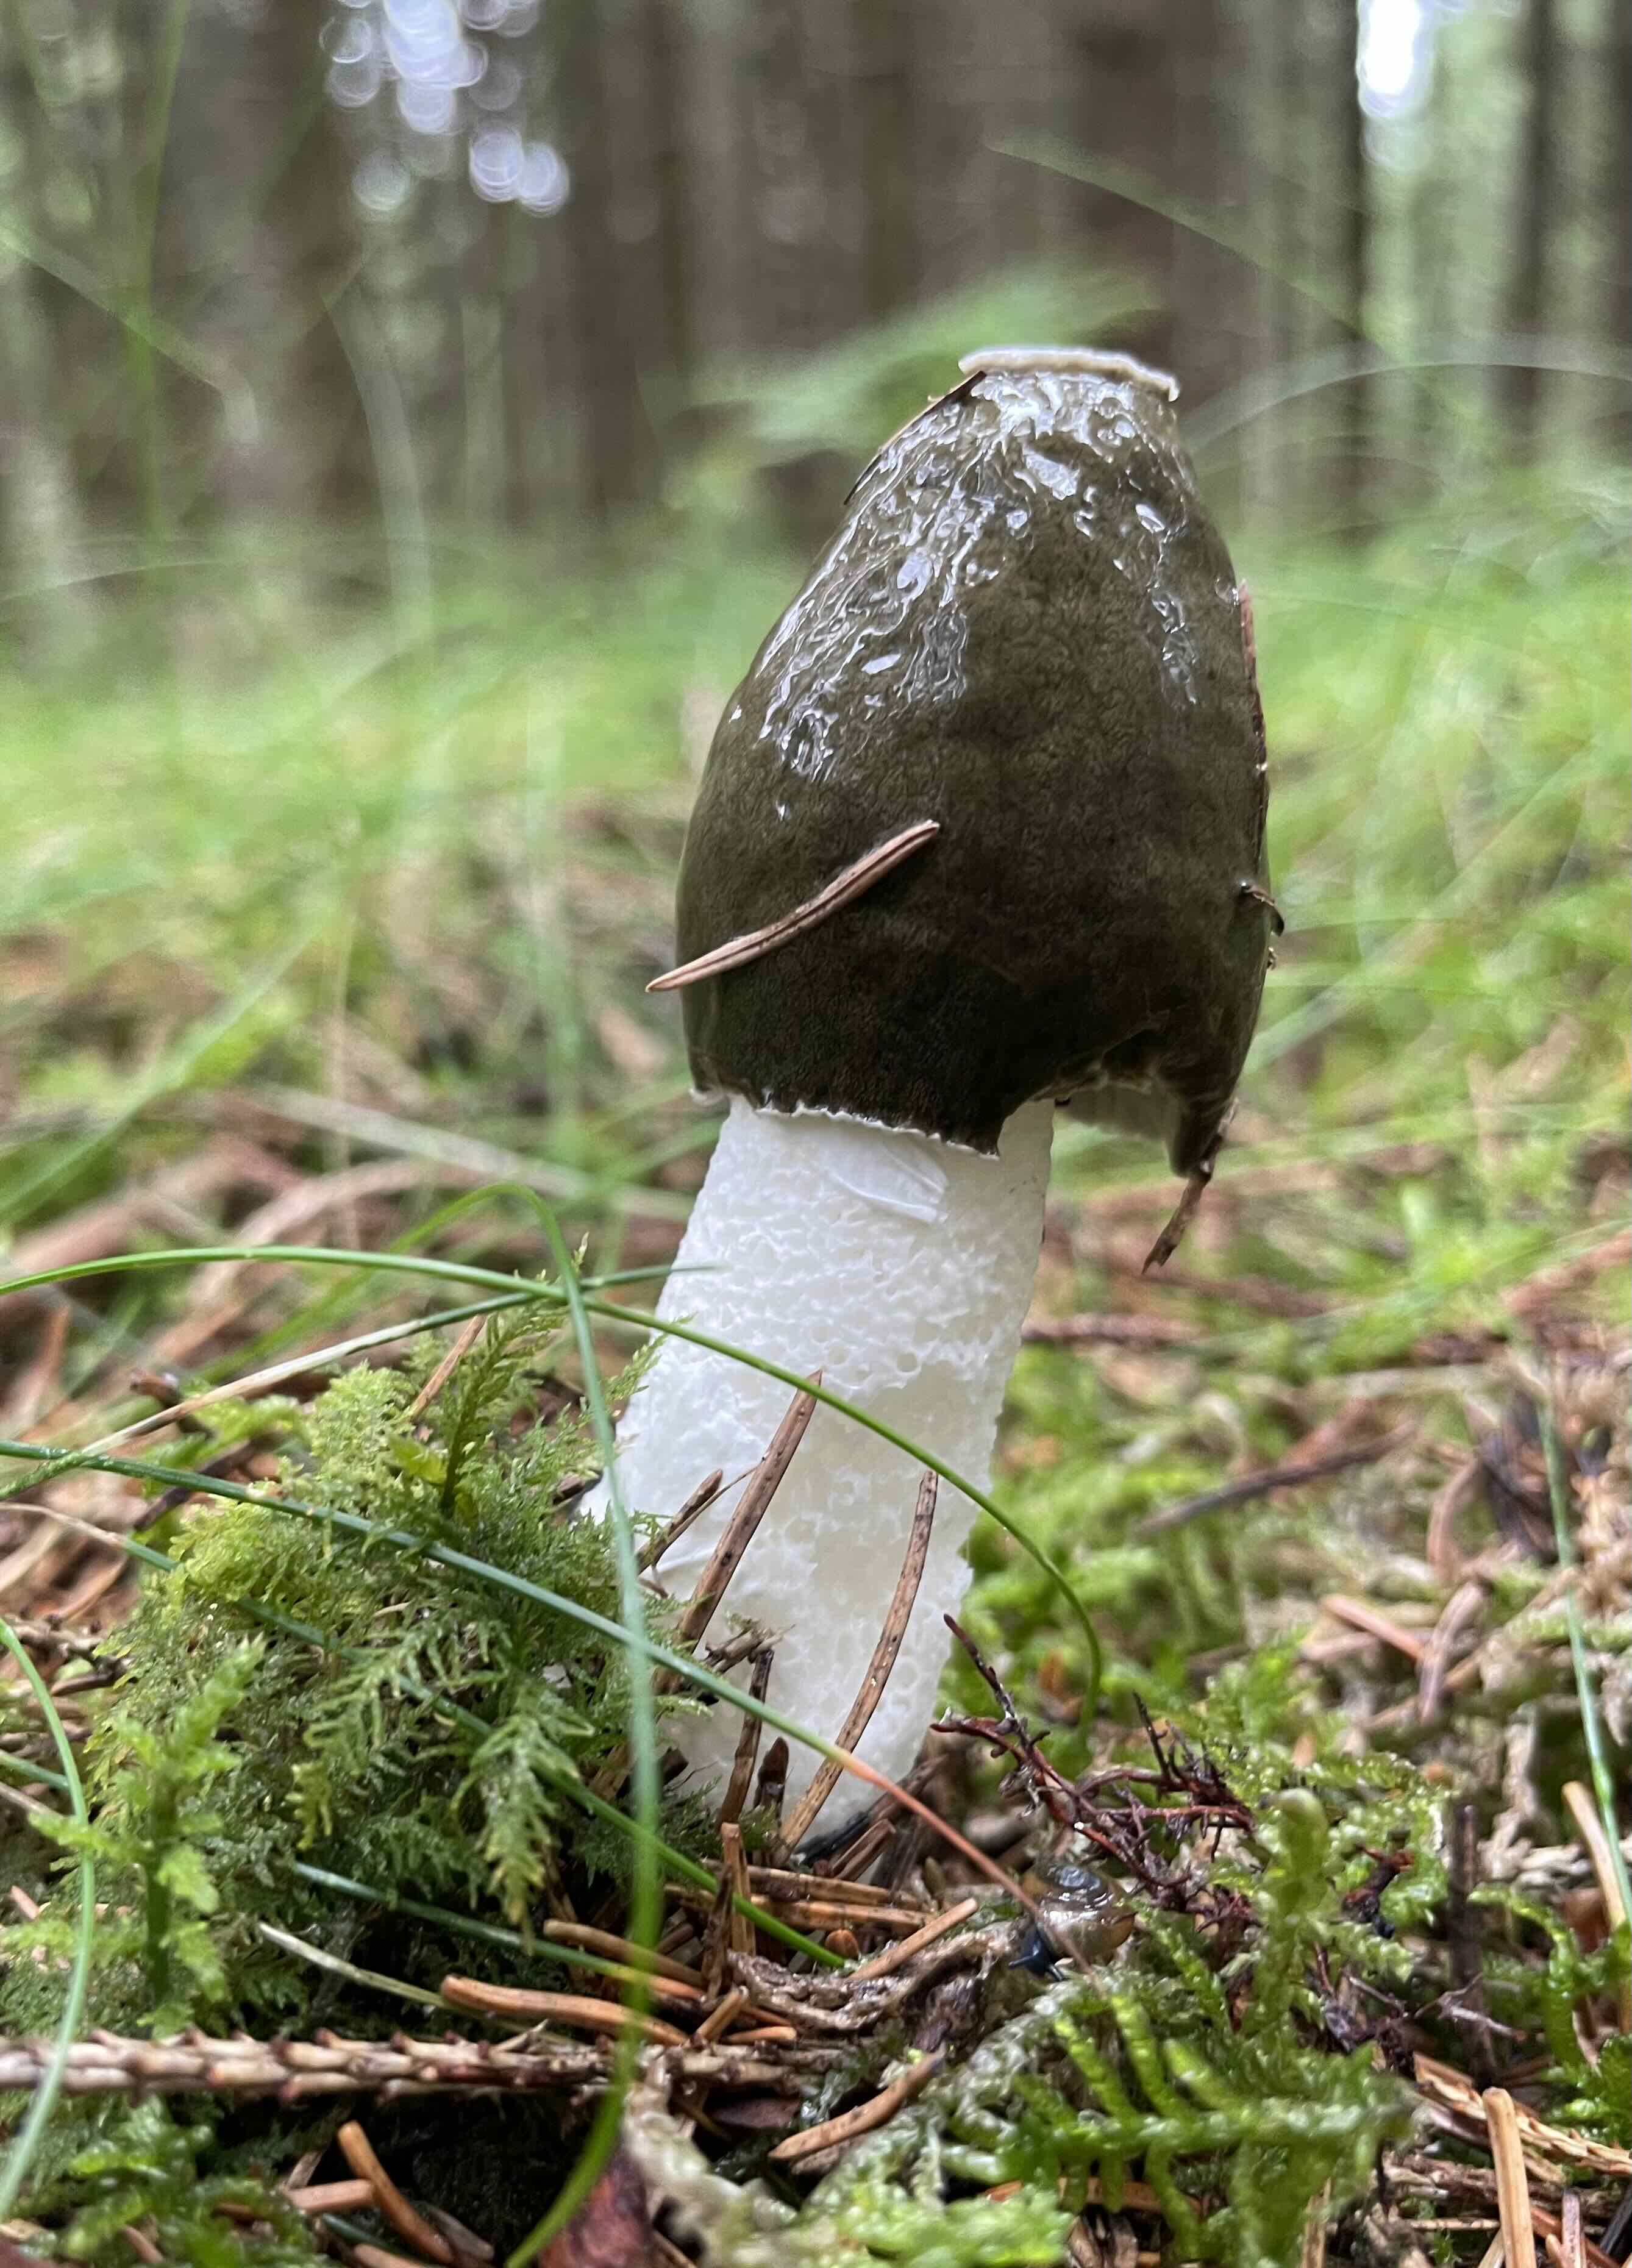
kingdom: Fungi
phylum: Basidiomycota
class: Agaricomycetes
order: Phallales
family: Phallaceae
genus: Phallus
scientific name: Phallus impudicus
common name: almindelig stinksvamp
